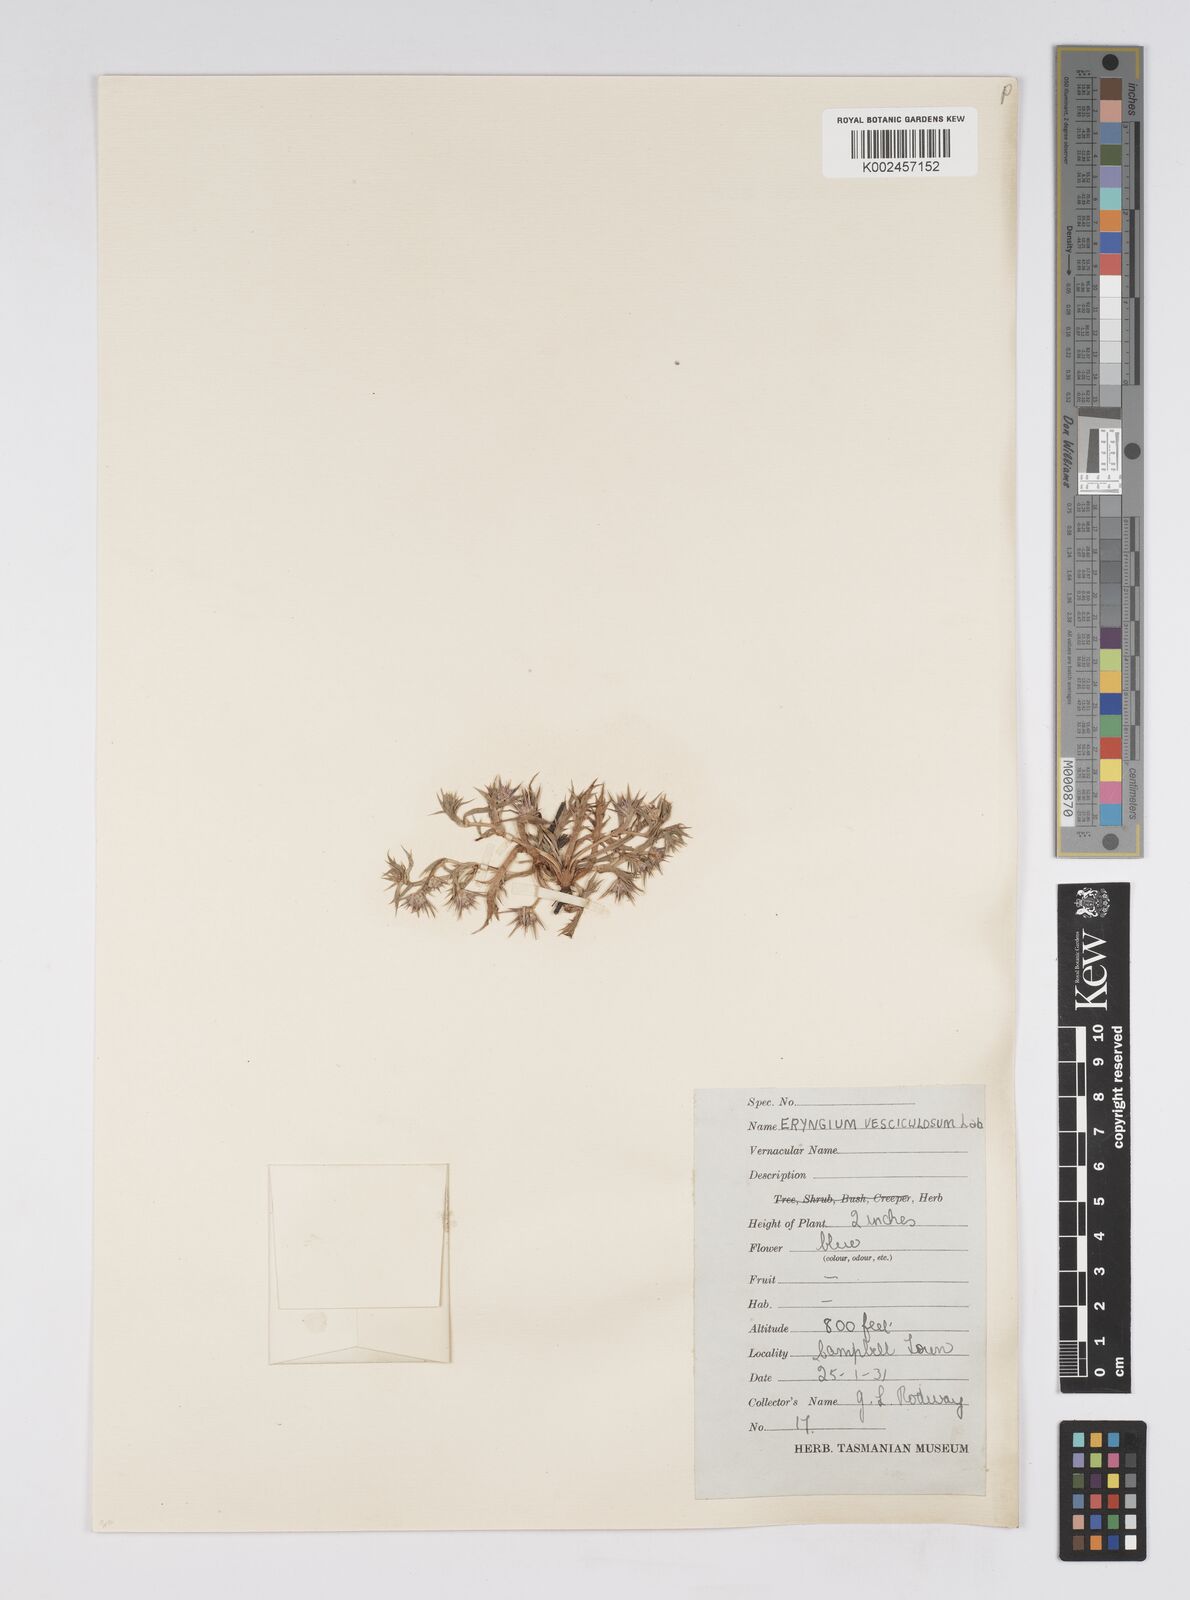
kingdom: Plantae
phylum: Tracheophyta
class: Magnoliopsida
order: Apiales
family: Apiaceae
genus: Eryngium
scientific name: Eryngium vesiculosum
